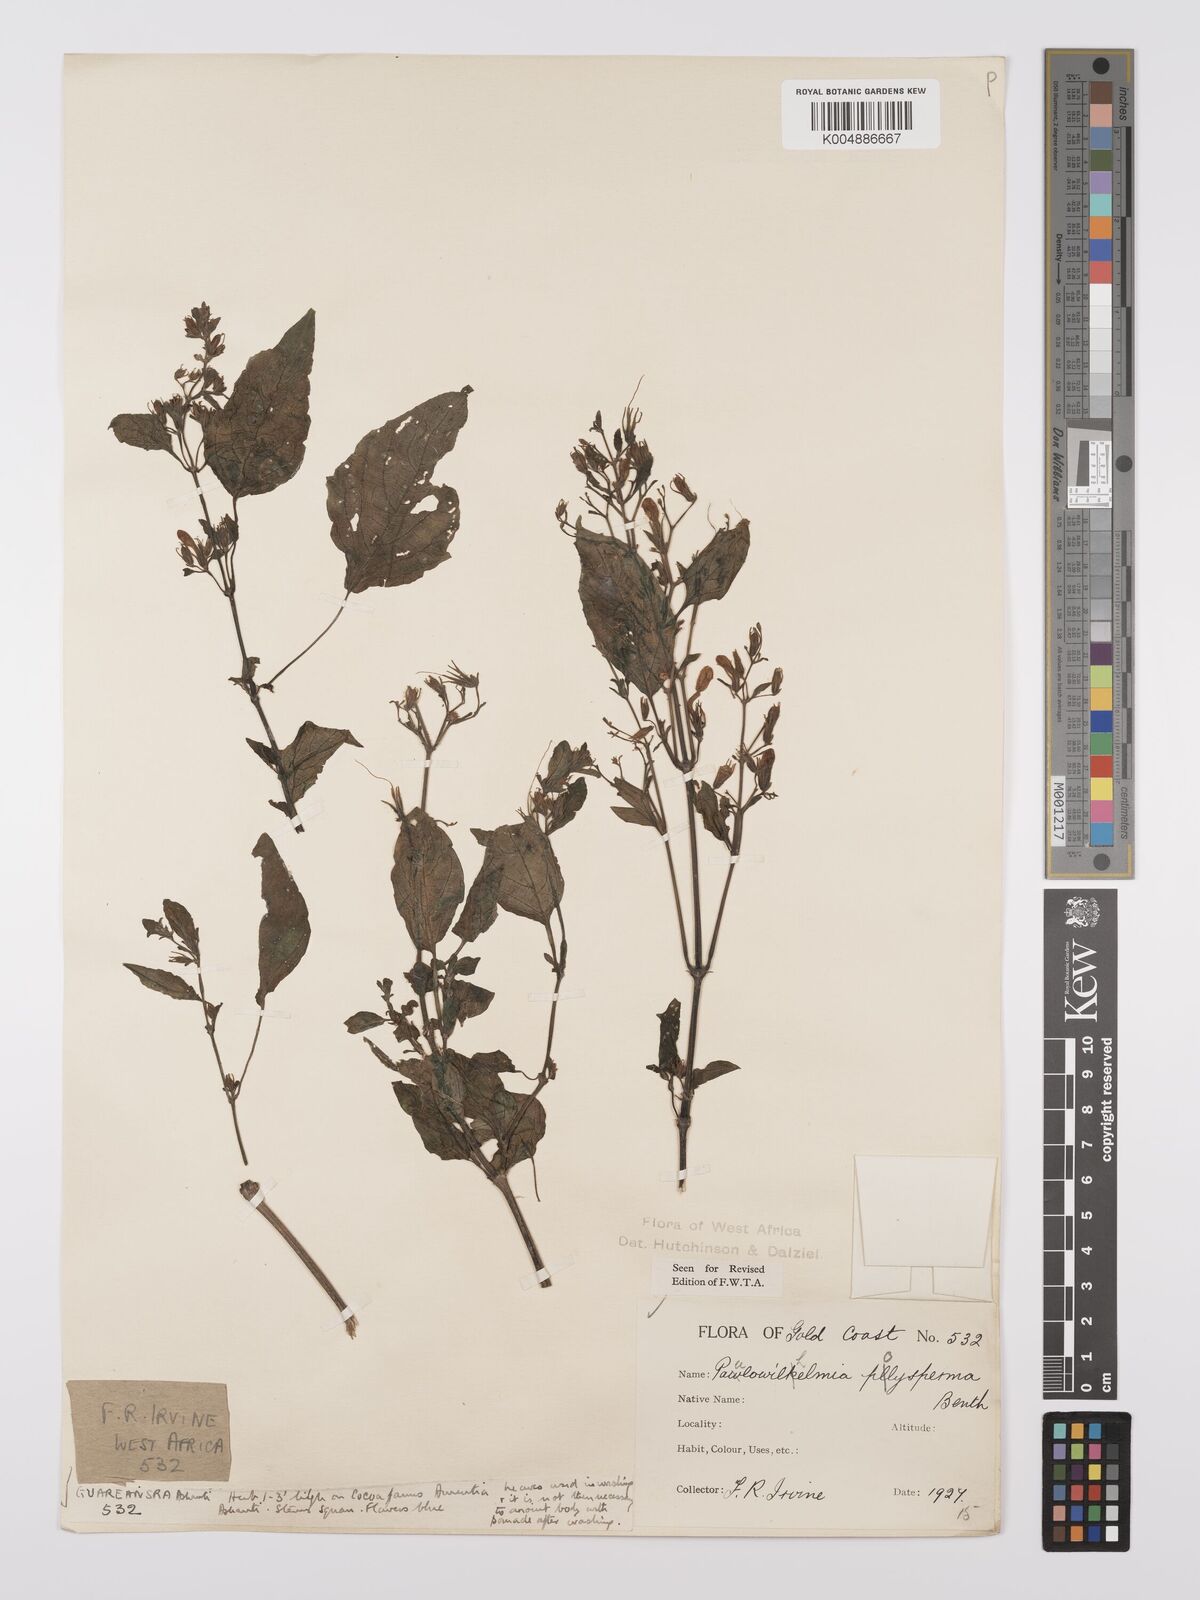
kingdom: Plantae
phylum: Tracheophyta
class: Magnoliopsida
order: Lamiales
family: Acanthaceae
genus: Eremomastax
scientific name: Eremomastax speciosa
